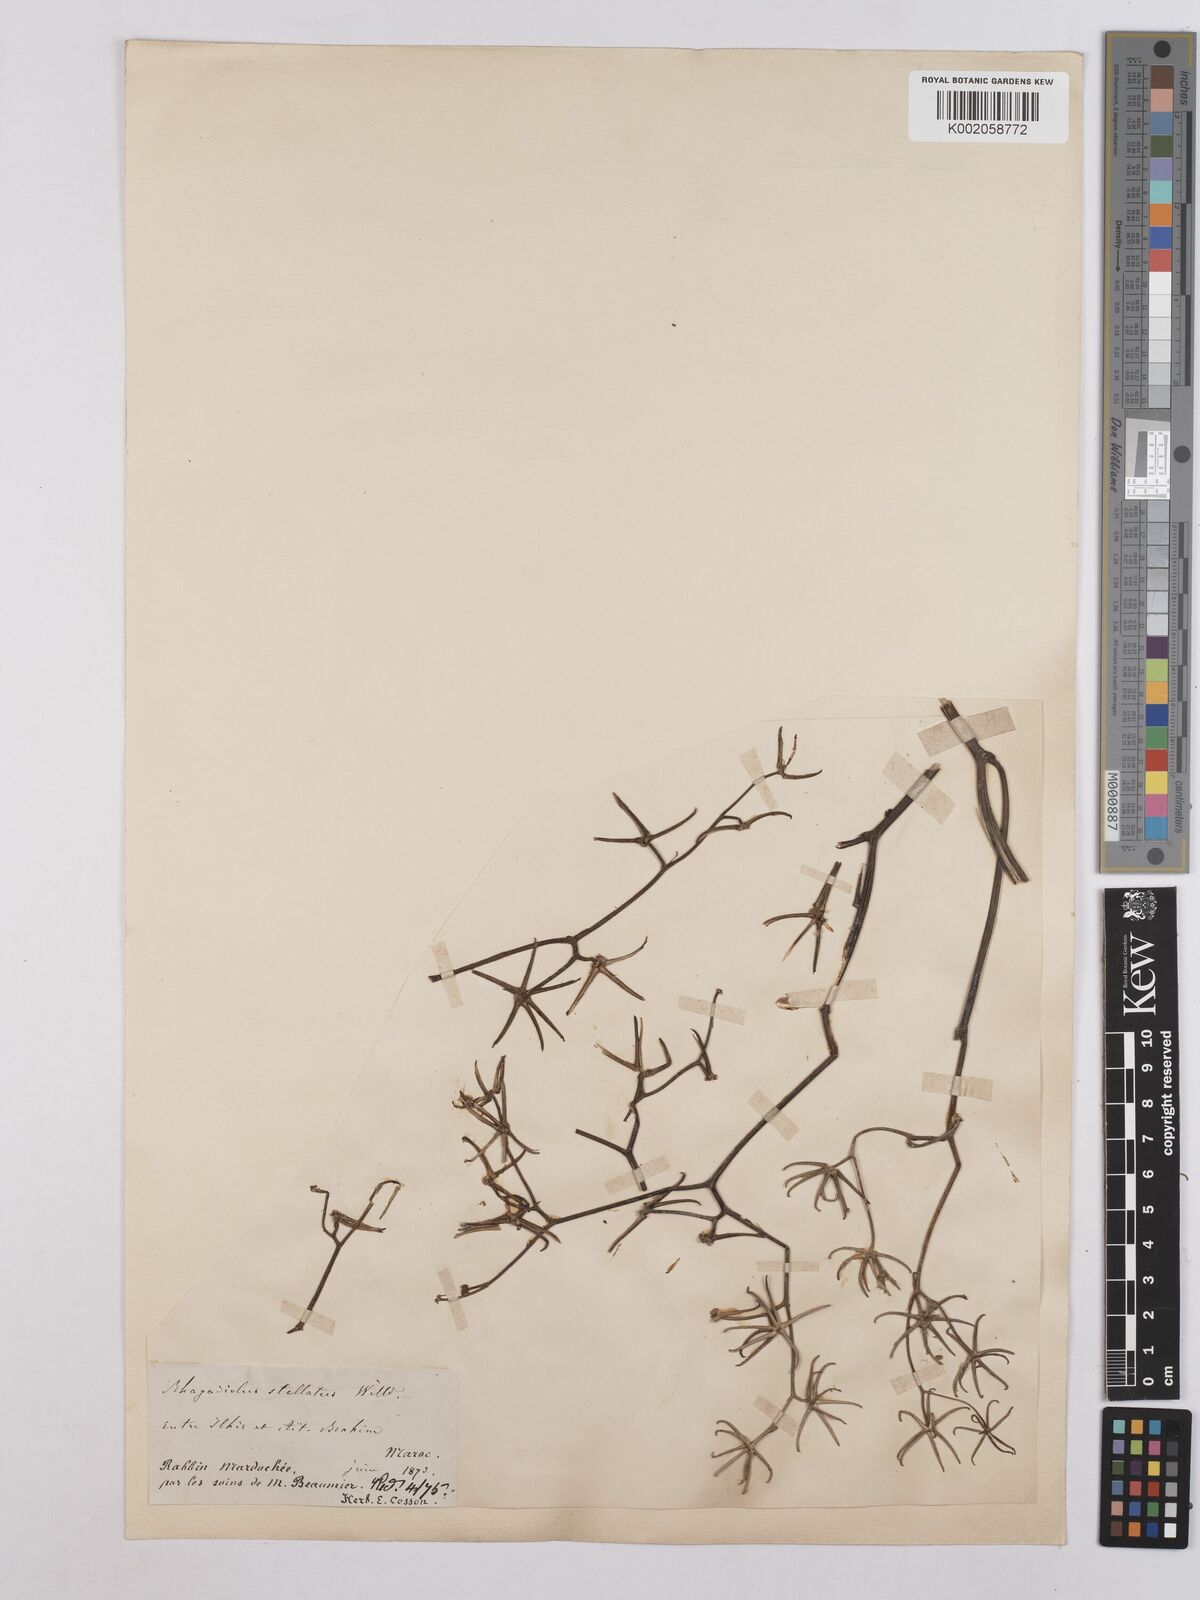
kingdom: Plantae
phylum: Tracheophyta
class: Magnoliopsida
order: Asterales
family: Asteraceae
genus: Rhagadiolus
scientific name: Rhagadiolus stellatus
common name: Star hawkbit
